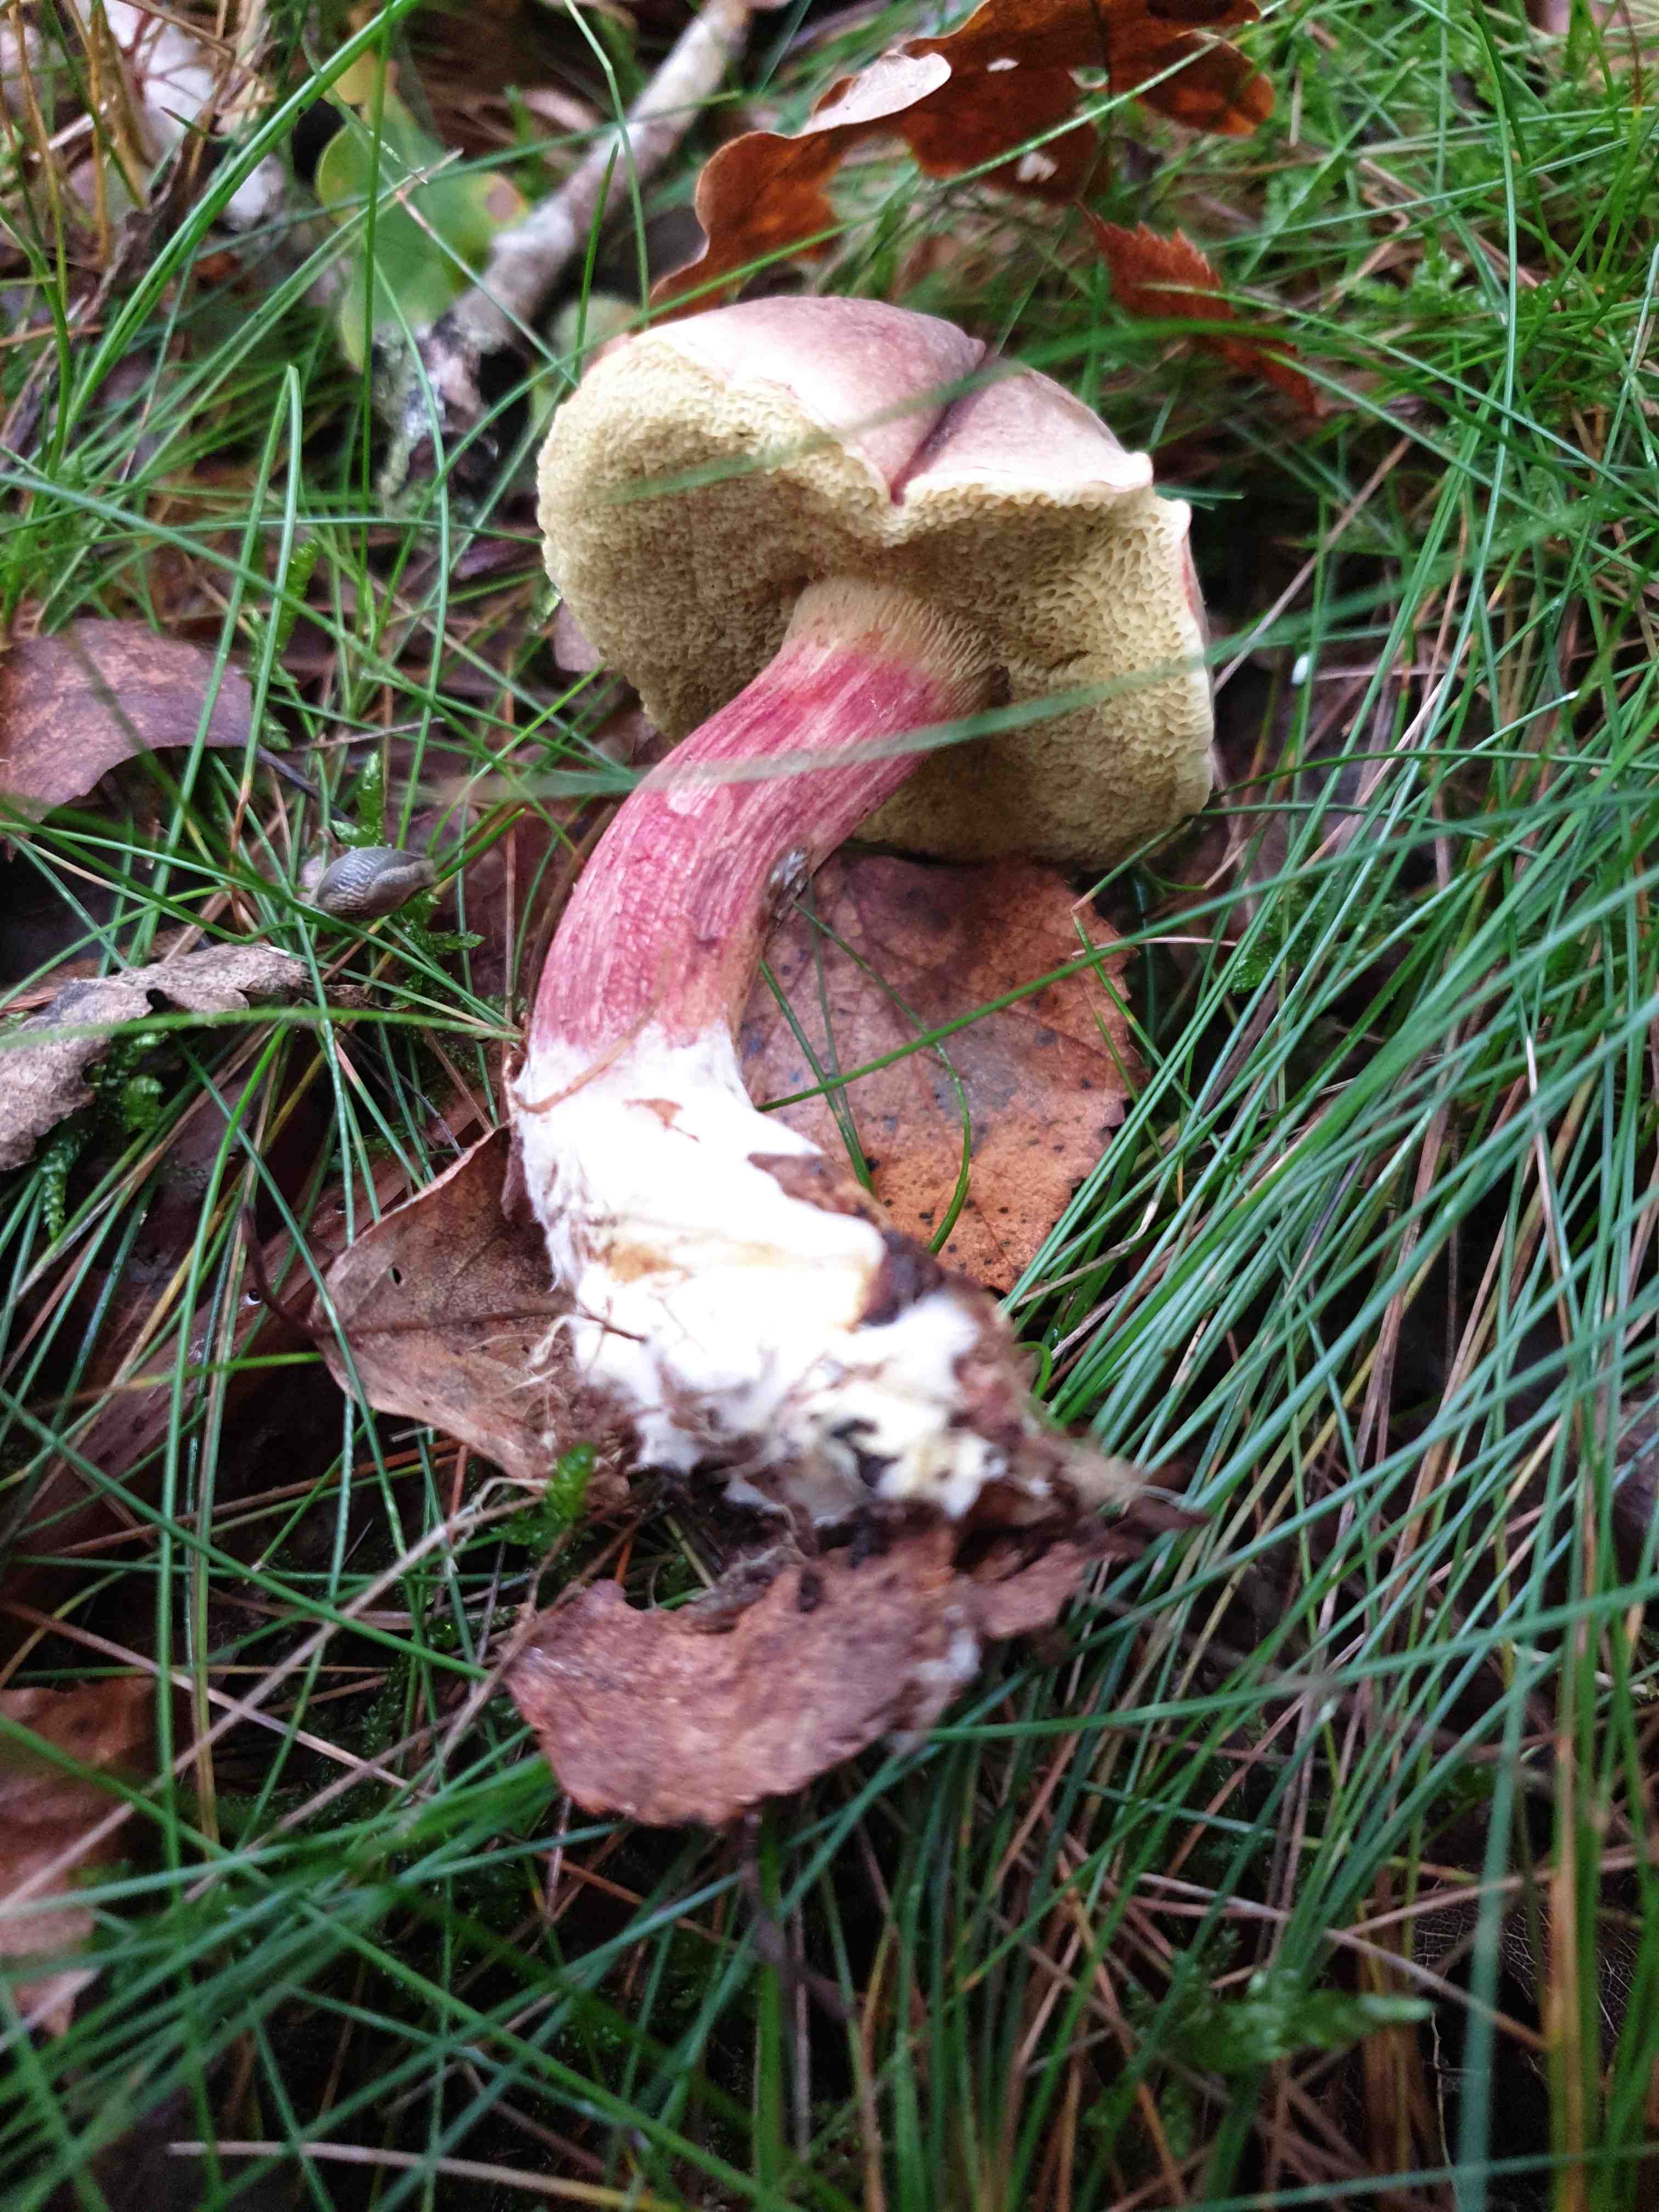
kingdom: Fungi
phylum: Basidiomycota
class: Agaricomycetes
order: Boletales
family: Boletaceae
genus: Xerocomellus
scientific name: Xerocomellus pruinatus
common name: dugget rørhat
